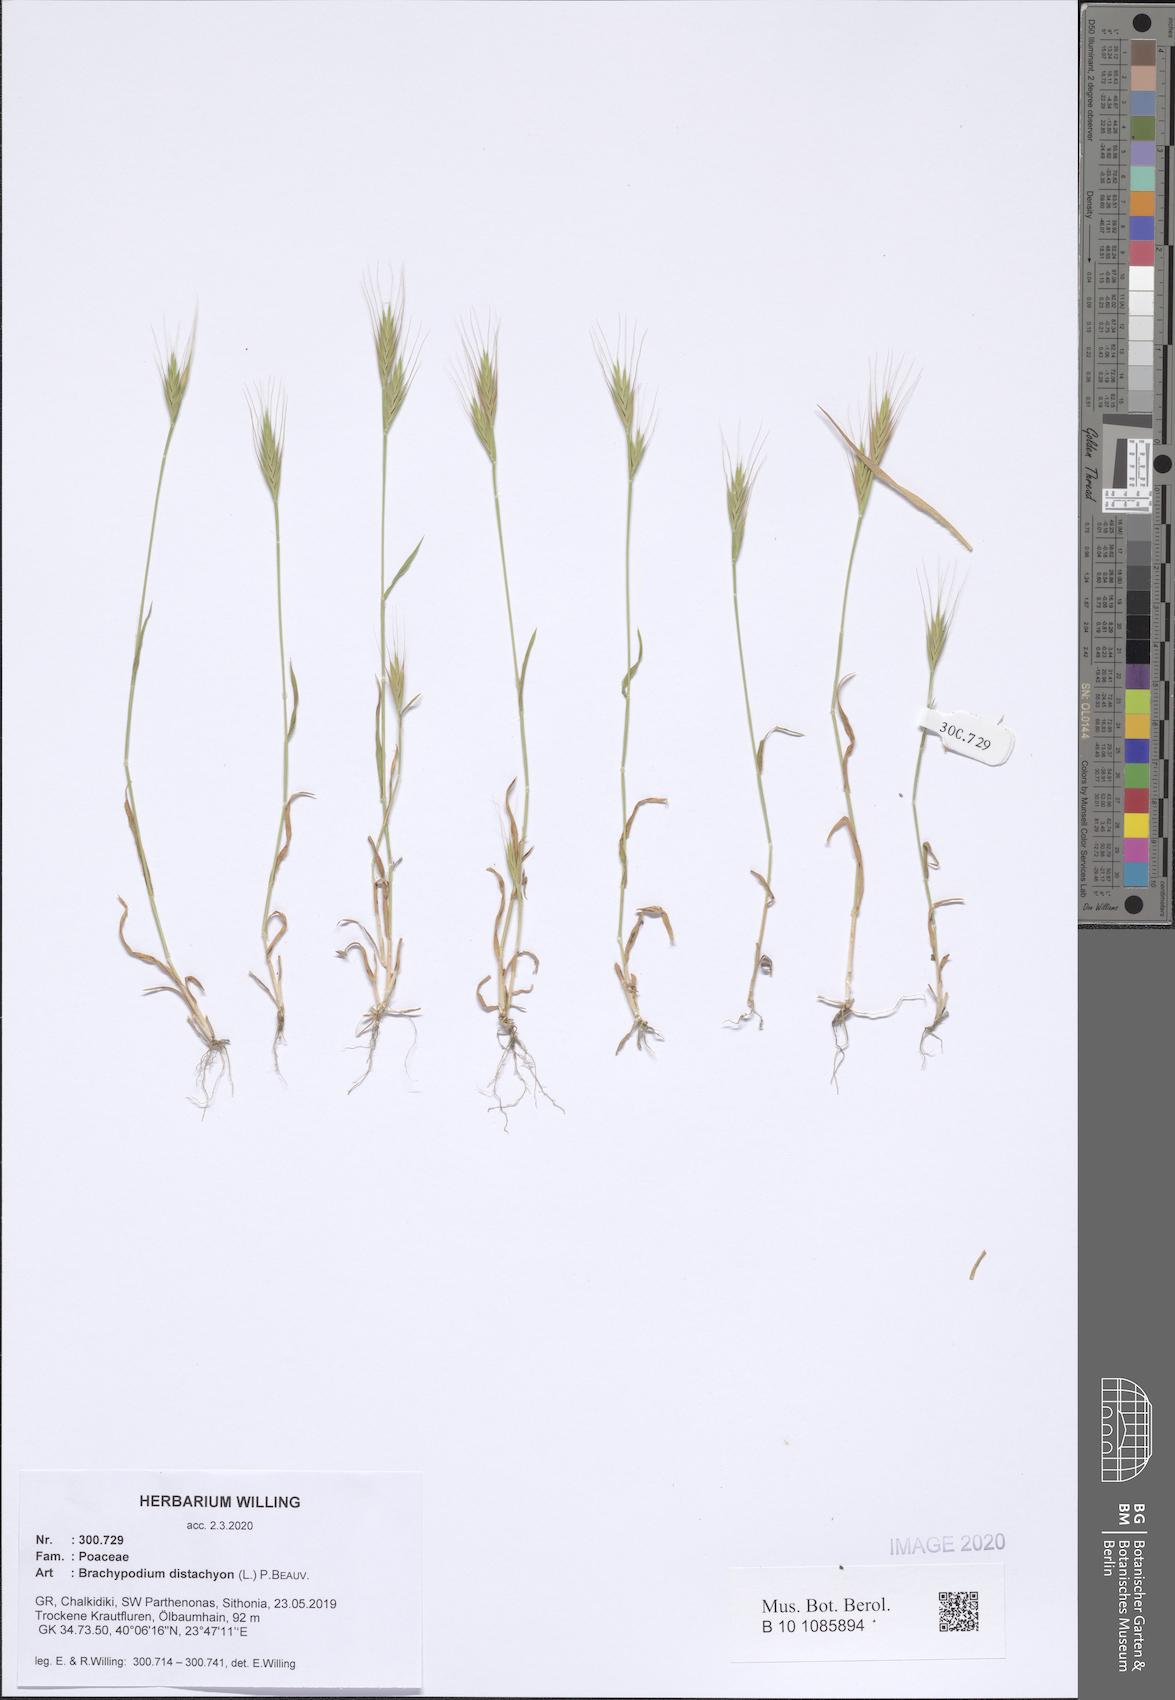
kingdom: Plantae
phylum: Tracheophyta
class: Liliopsida
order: Poales
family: Poaceae
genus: Brachypodium
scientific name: Brachypodium distachyon
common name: Stiff brome
